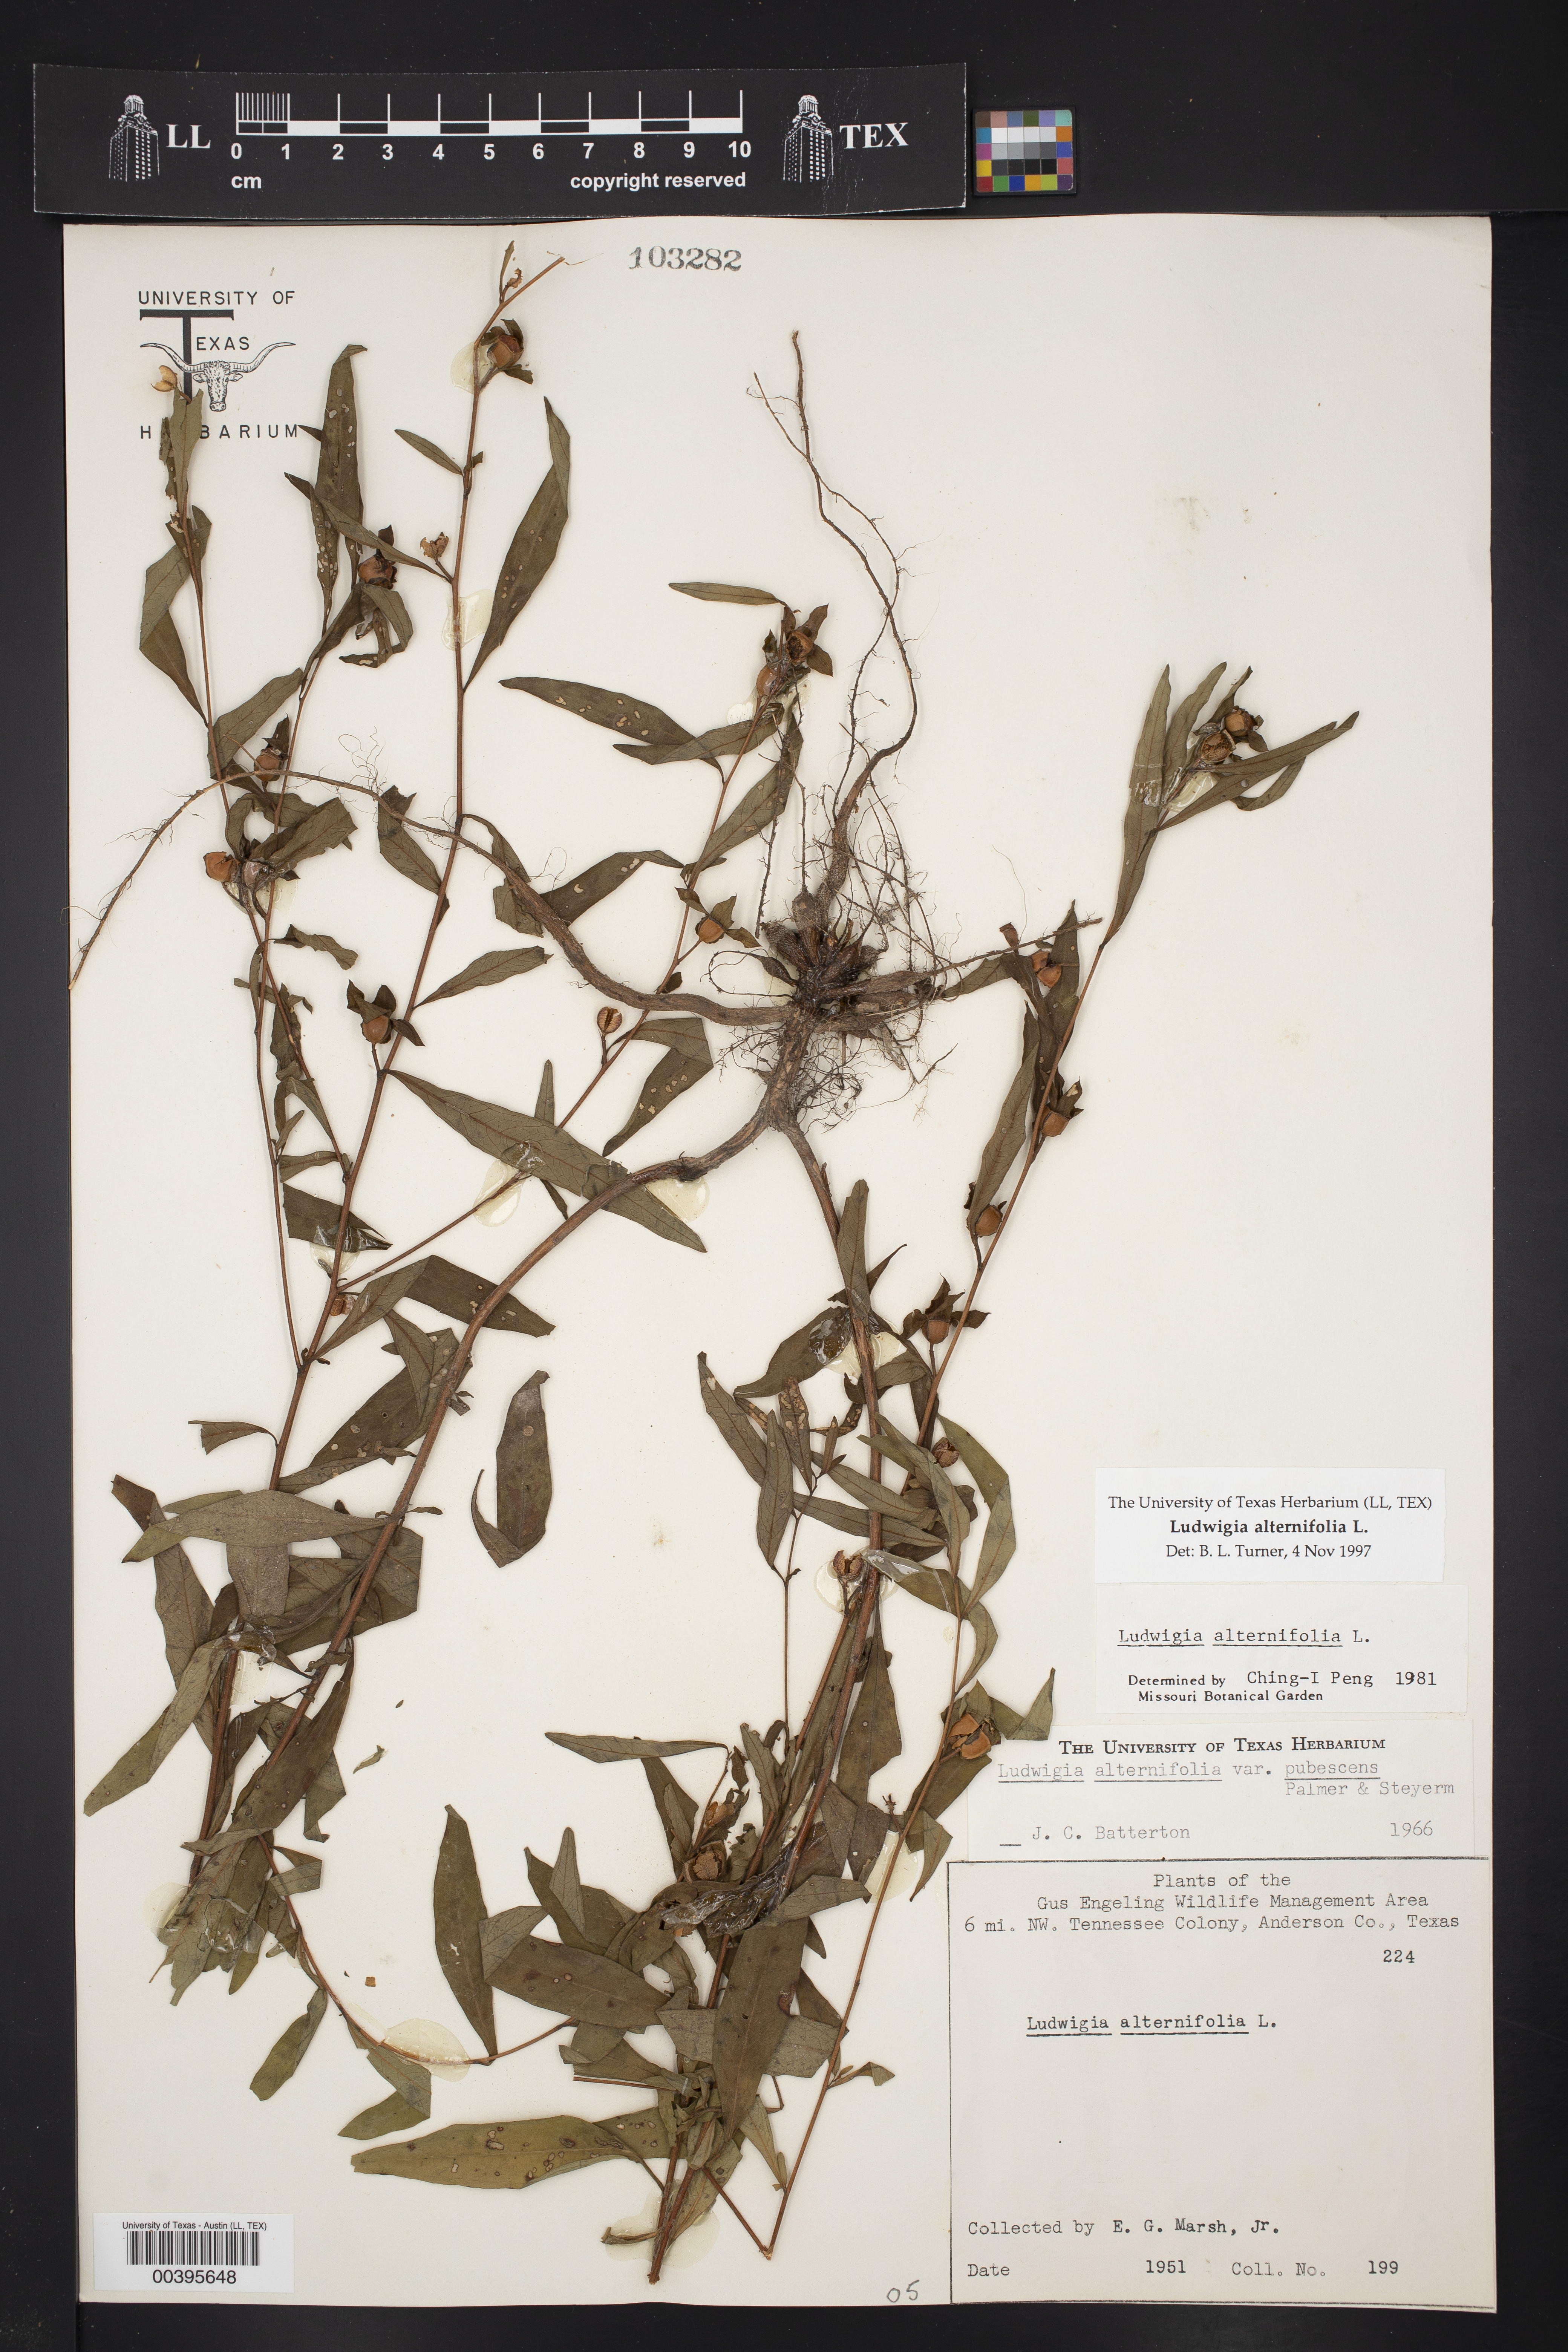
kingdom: Plantae
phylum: Tracheophyta
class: Magnoliopsida
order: Myrtales
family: Onagraceae
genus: Ludwigia
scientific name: Ludwigia alternifolia
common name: Rattlebox
